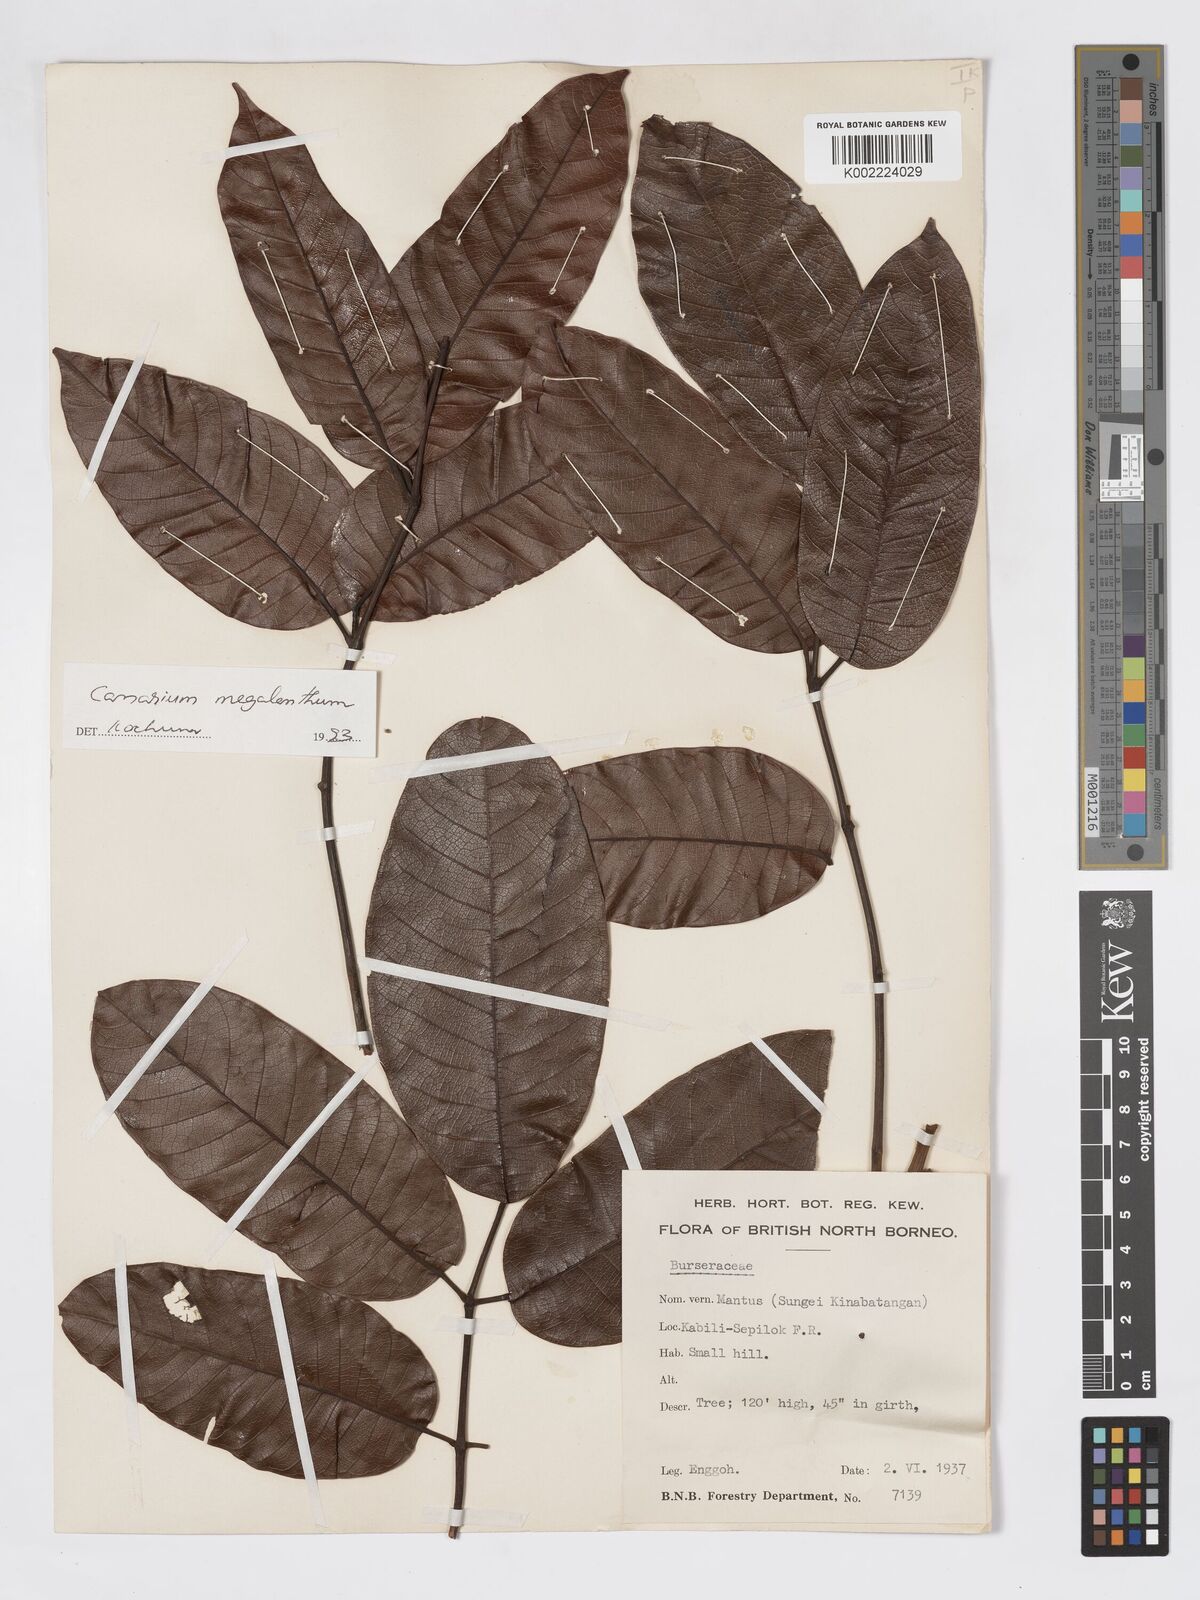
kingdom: Plantae
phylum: Tracheophyta
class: Magnoliopsida
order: Sapindales
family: Burseraceae
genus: Canarium
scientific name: Canarium megalanthum
